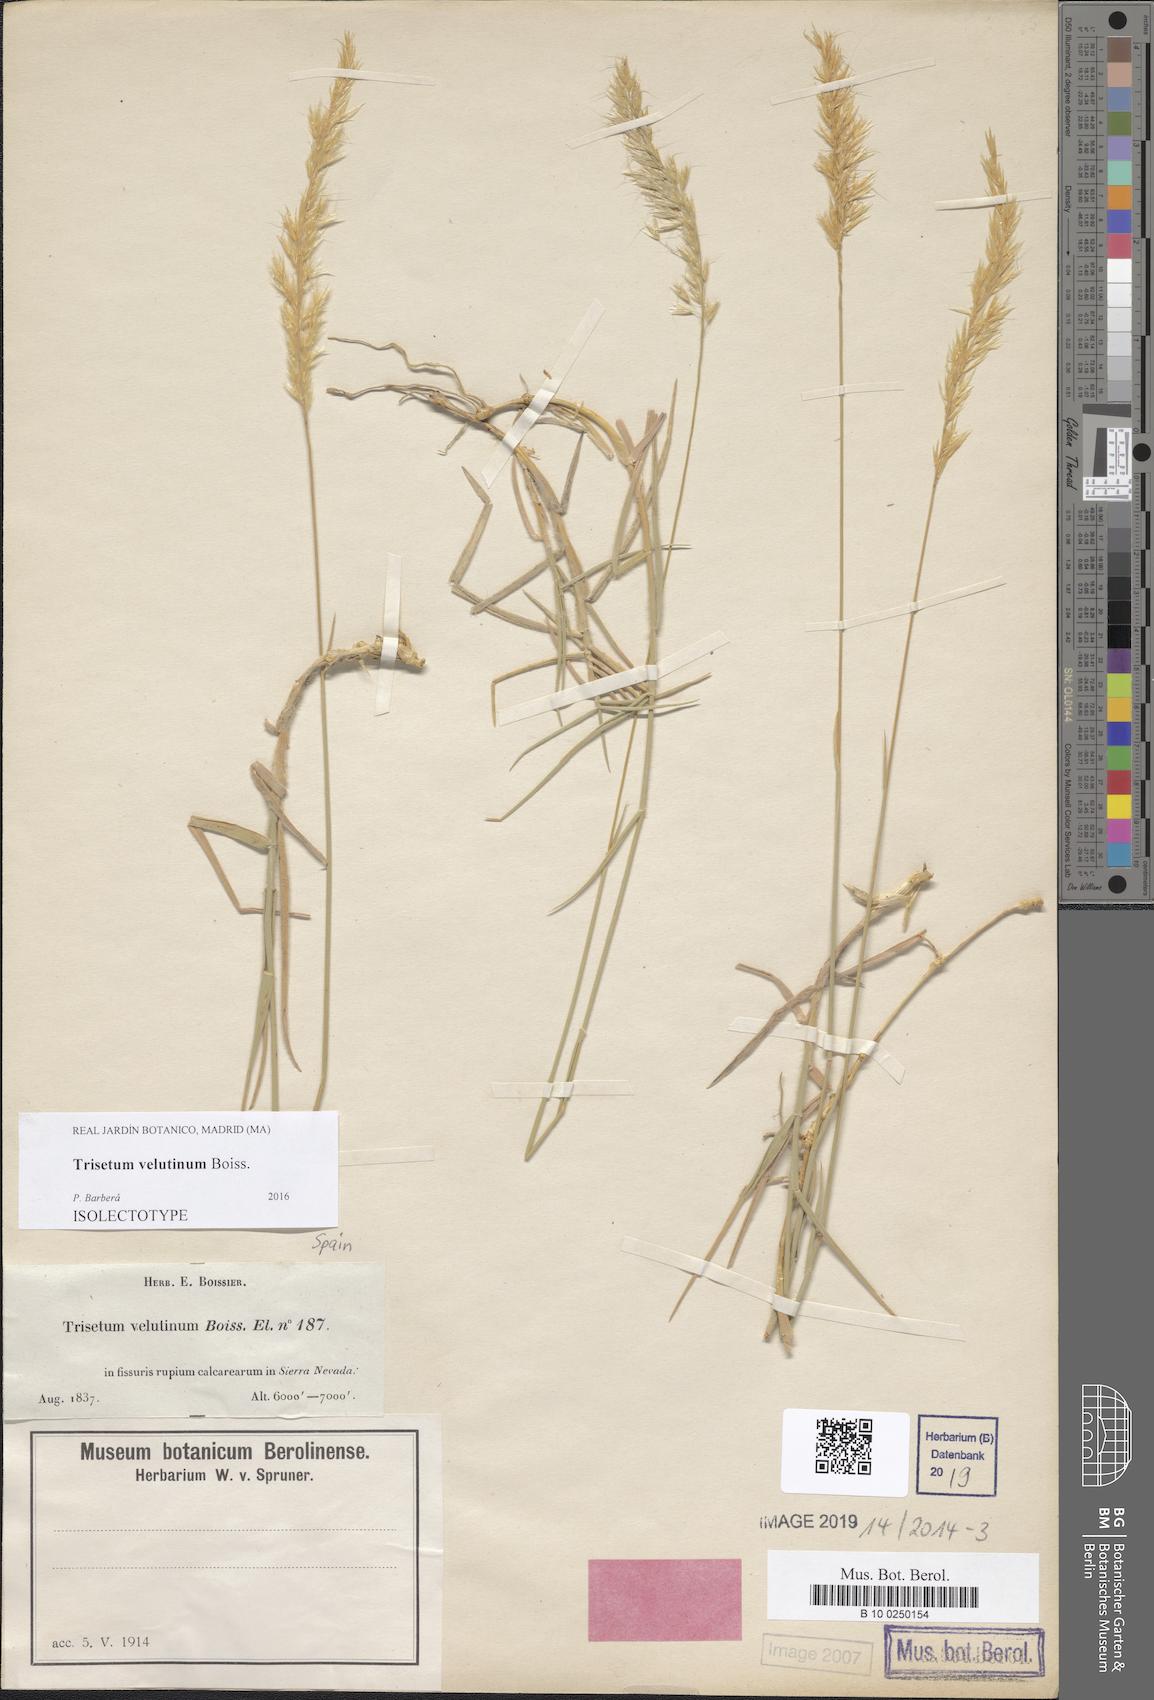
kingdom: Plantae
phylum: Tracheophyta
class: Liliopsida
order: Poales
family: Poaceae
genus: Trisetum
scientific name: Trisetum velutinum
